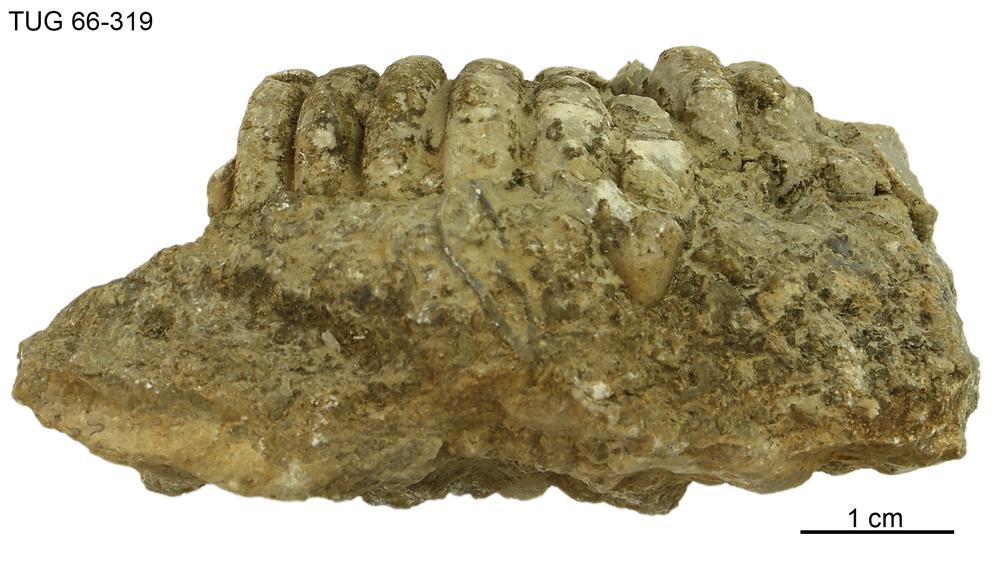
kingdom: Animalia
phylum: Mollusca
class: Cephalopoda
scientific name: Cephalopoda
